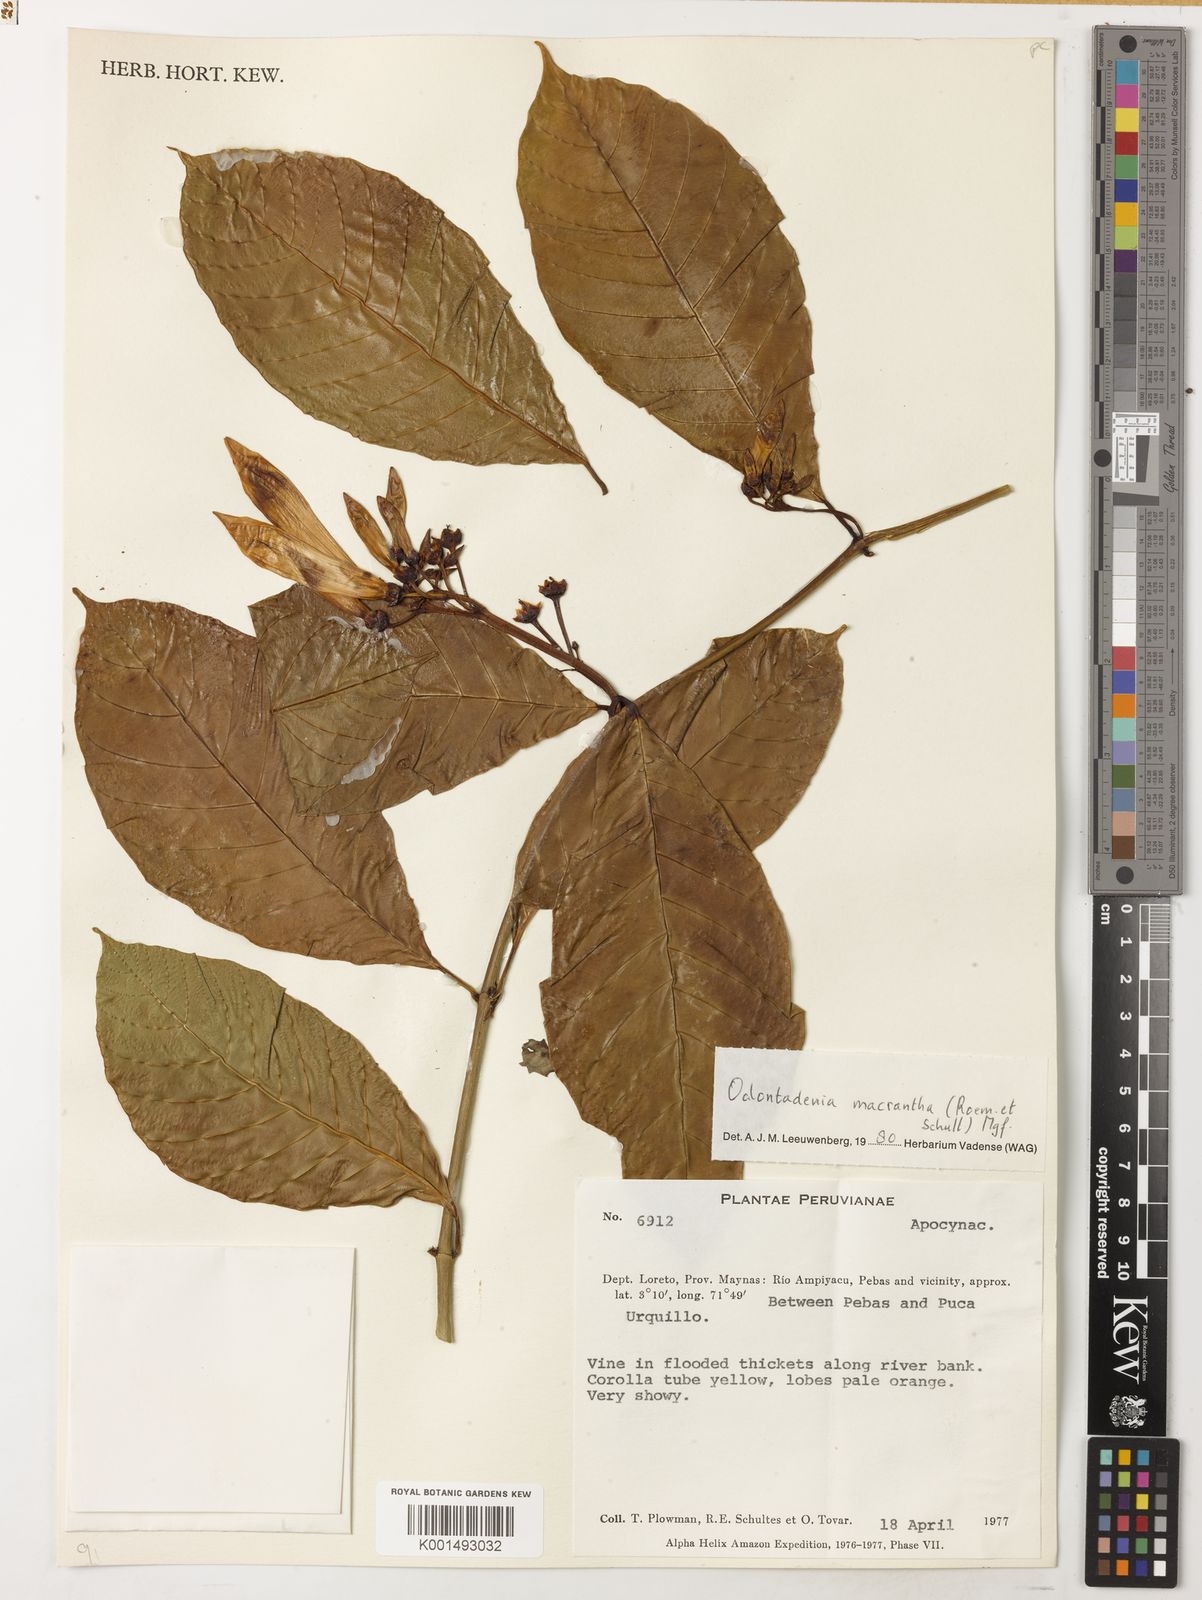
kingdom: Plantae
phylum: Tracheophyta
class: Magnoliopsida
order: Gentianales
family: Apocynaceae
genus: Odontadenia
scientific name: Odontadenia semidigyna
